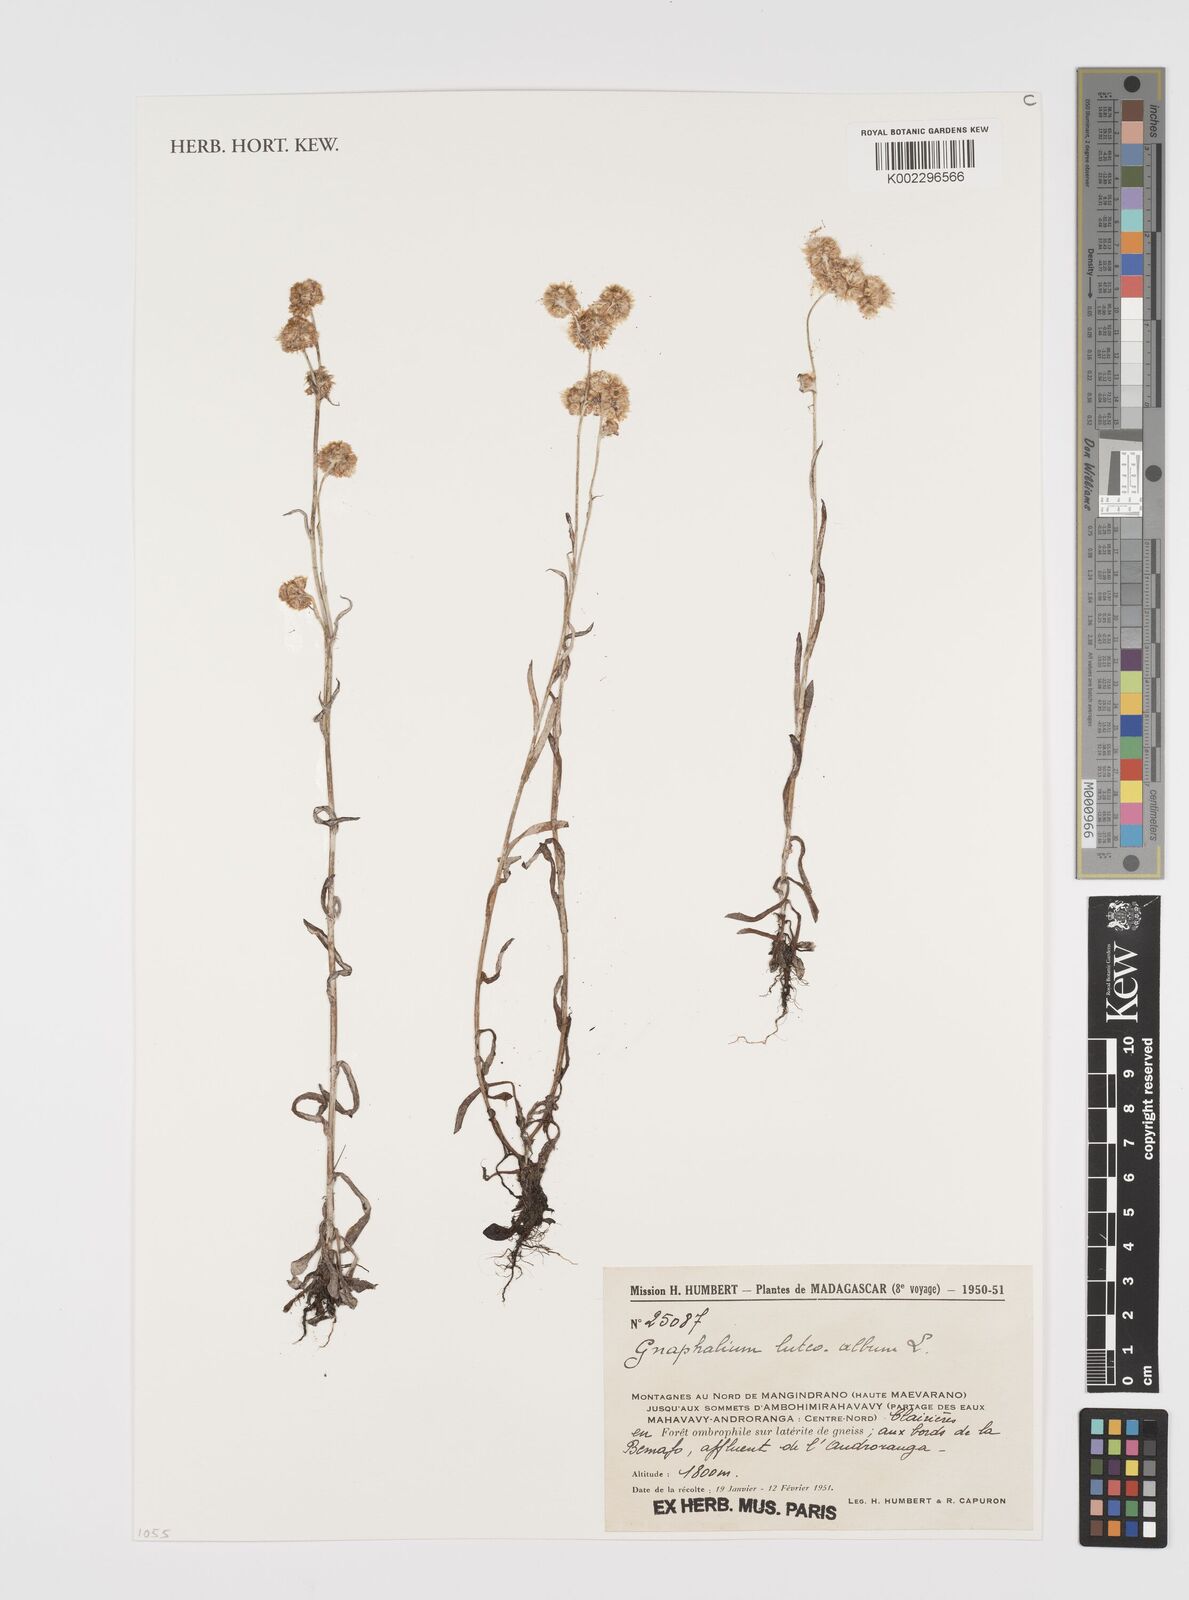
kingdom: Plantae
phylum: Tracheophyta
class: Magnoliopsida
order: Asterales
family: Asteraceae
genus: Helichrysum
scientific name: Helichrysum luteoalbum
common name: Daisy
